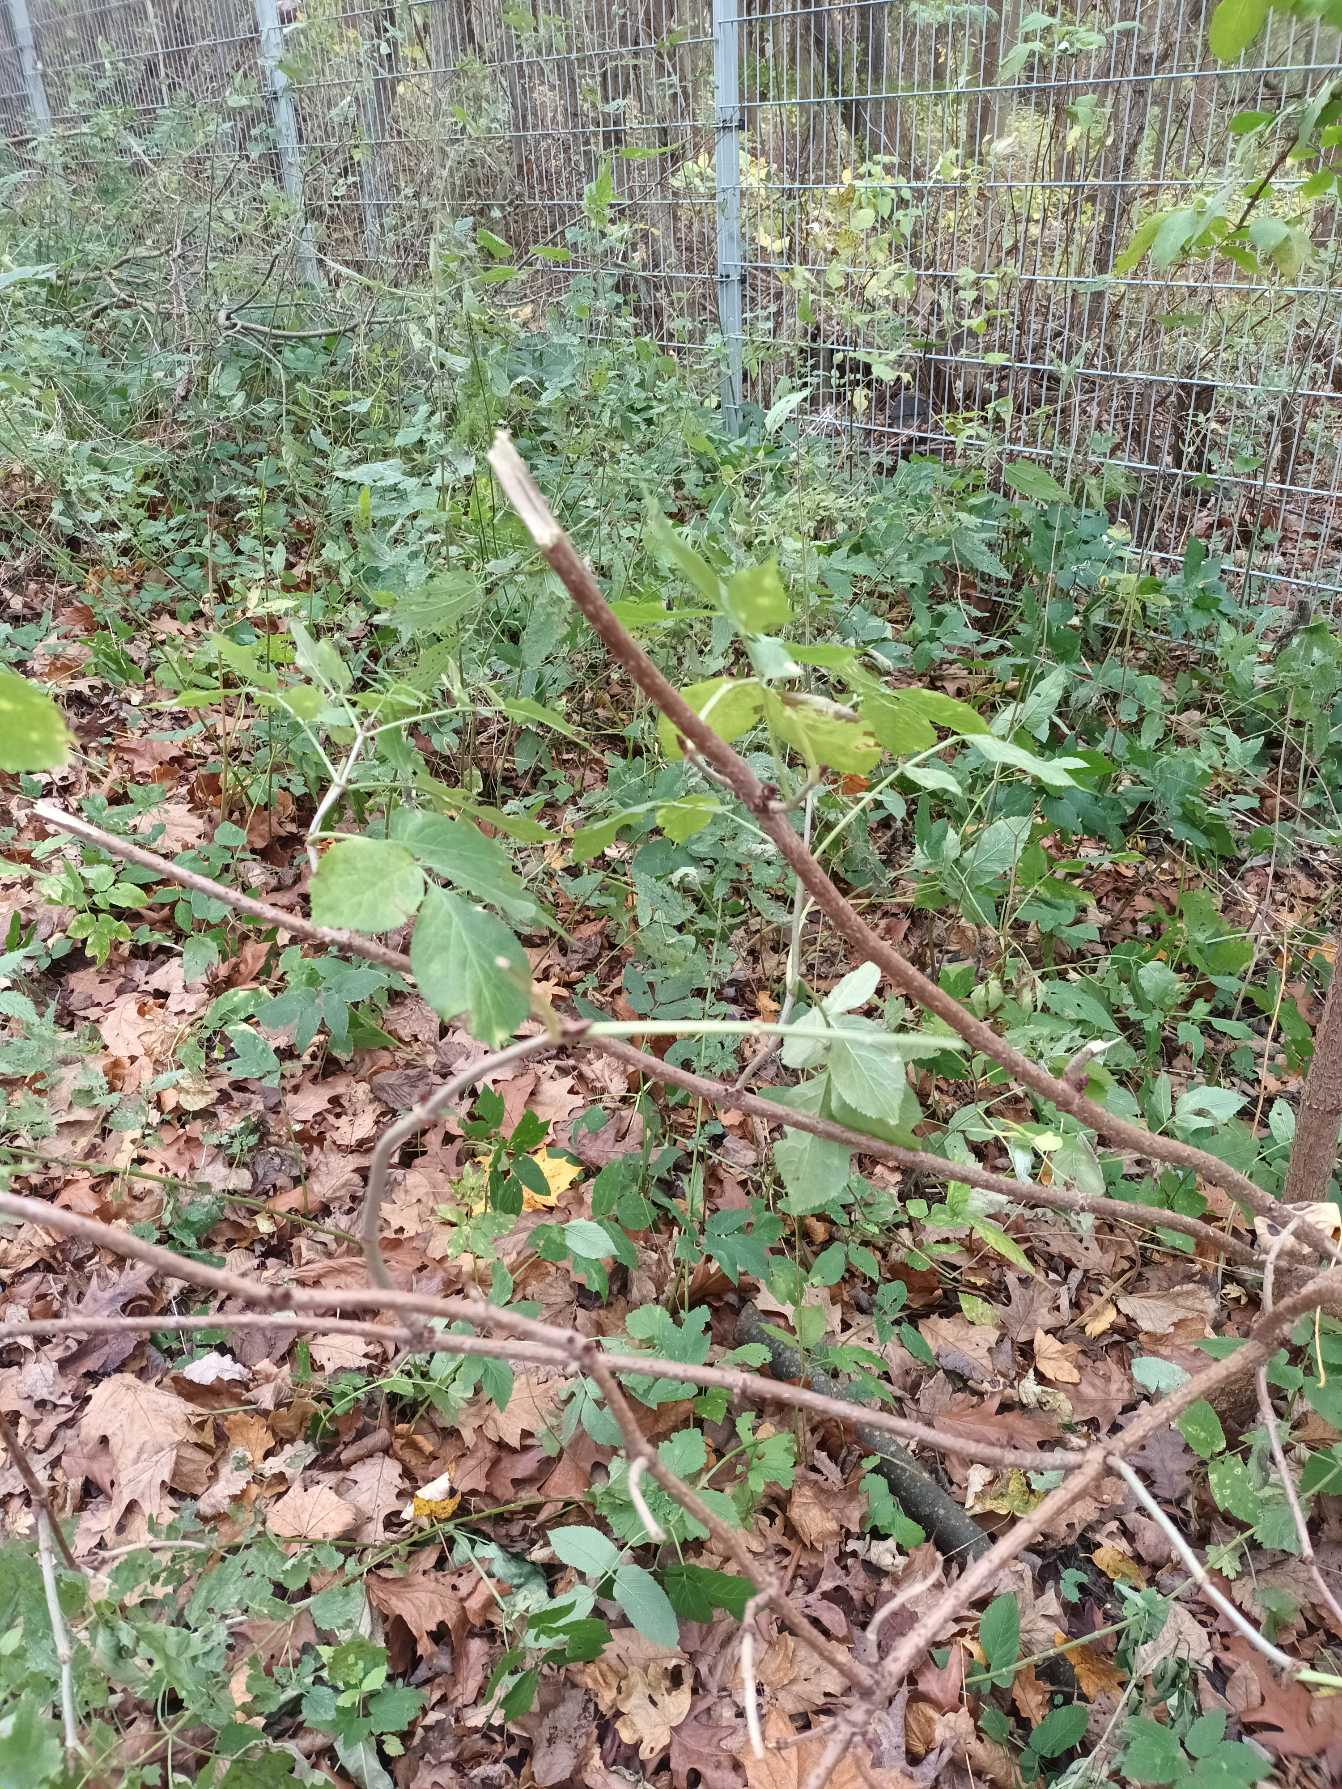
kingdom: Plantae
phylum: Tracheophyta
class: Magnoliopsida
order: Dipsacales
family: Viburnaceae
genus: Sambucus
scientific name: Sambucus nigra
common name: Almindelig hyld
